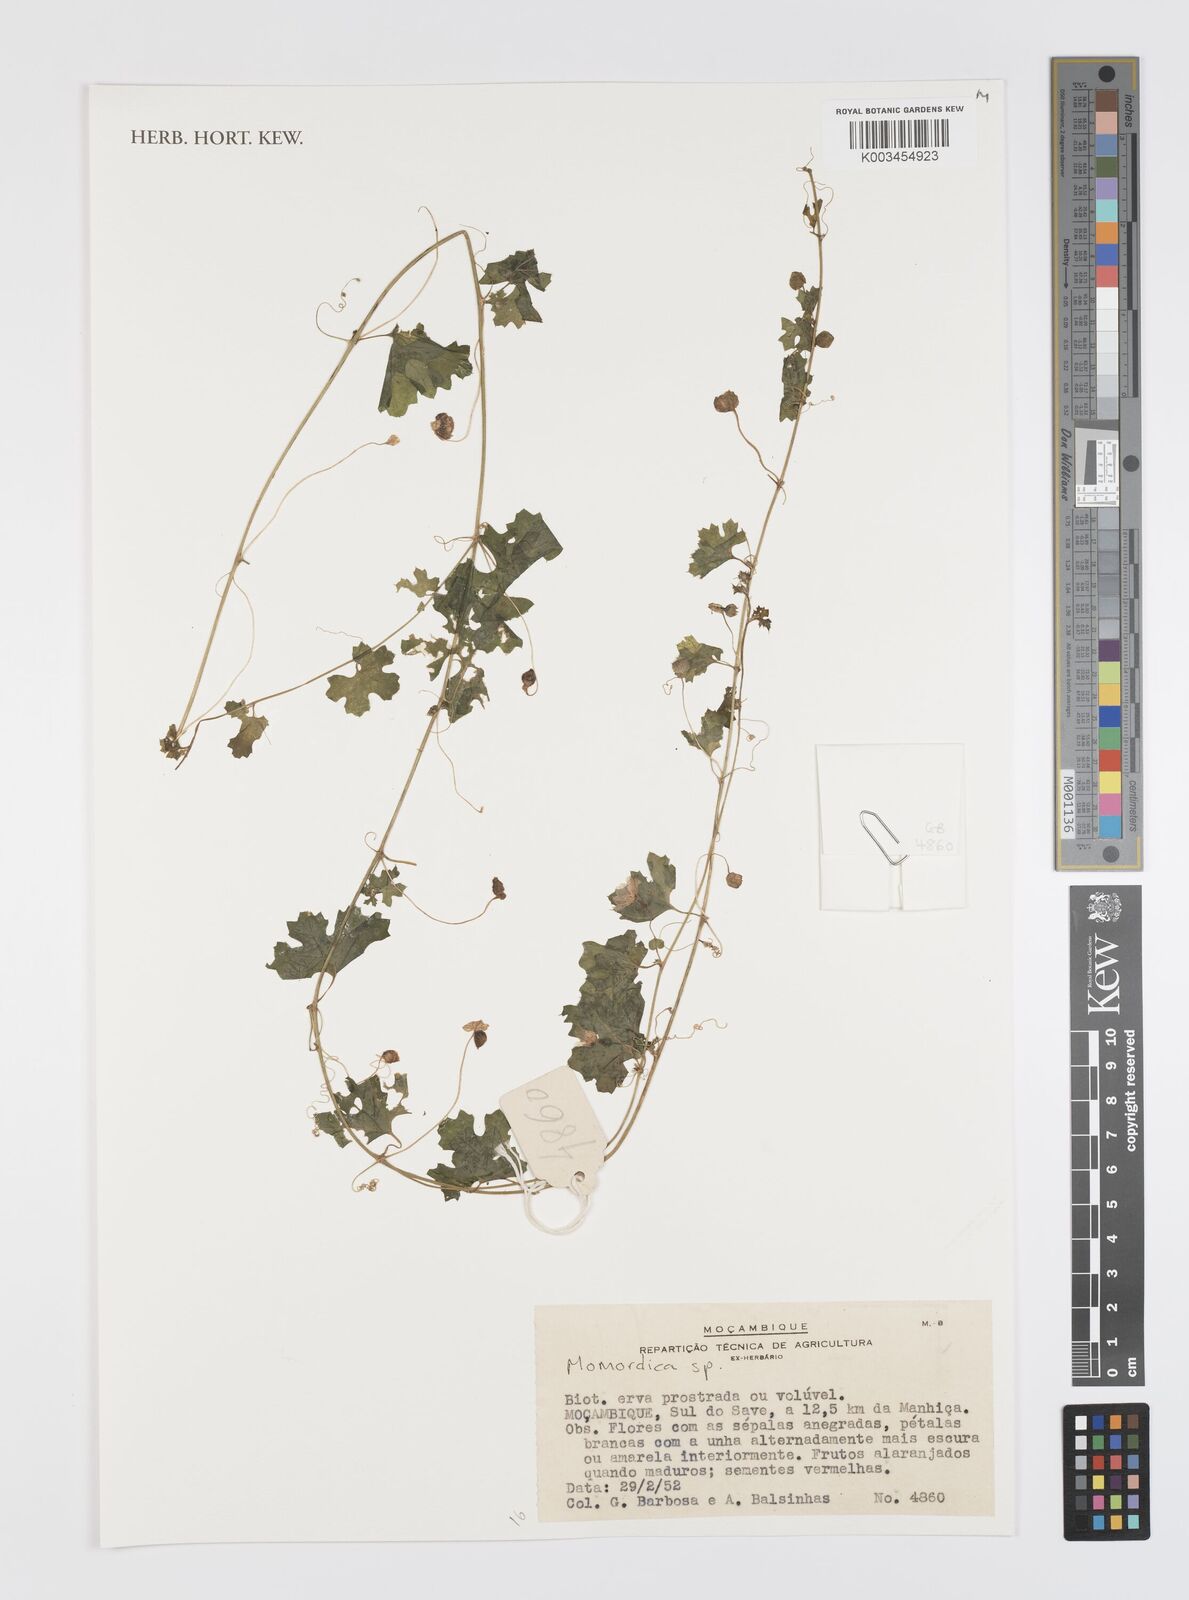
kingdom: Plantae
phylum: Tracheophyta
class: Magnoliopsida
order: Cucurbitales
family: Cucurbitaceae
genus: Momordica
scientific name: Momordica
